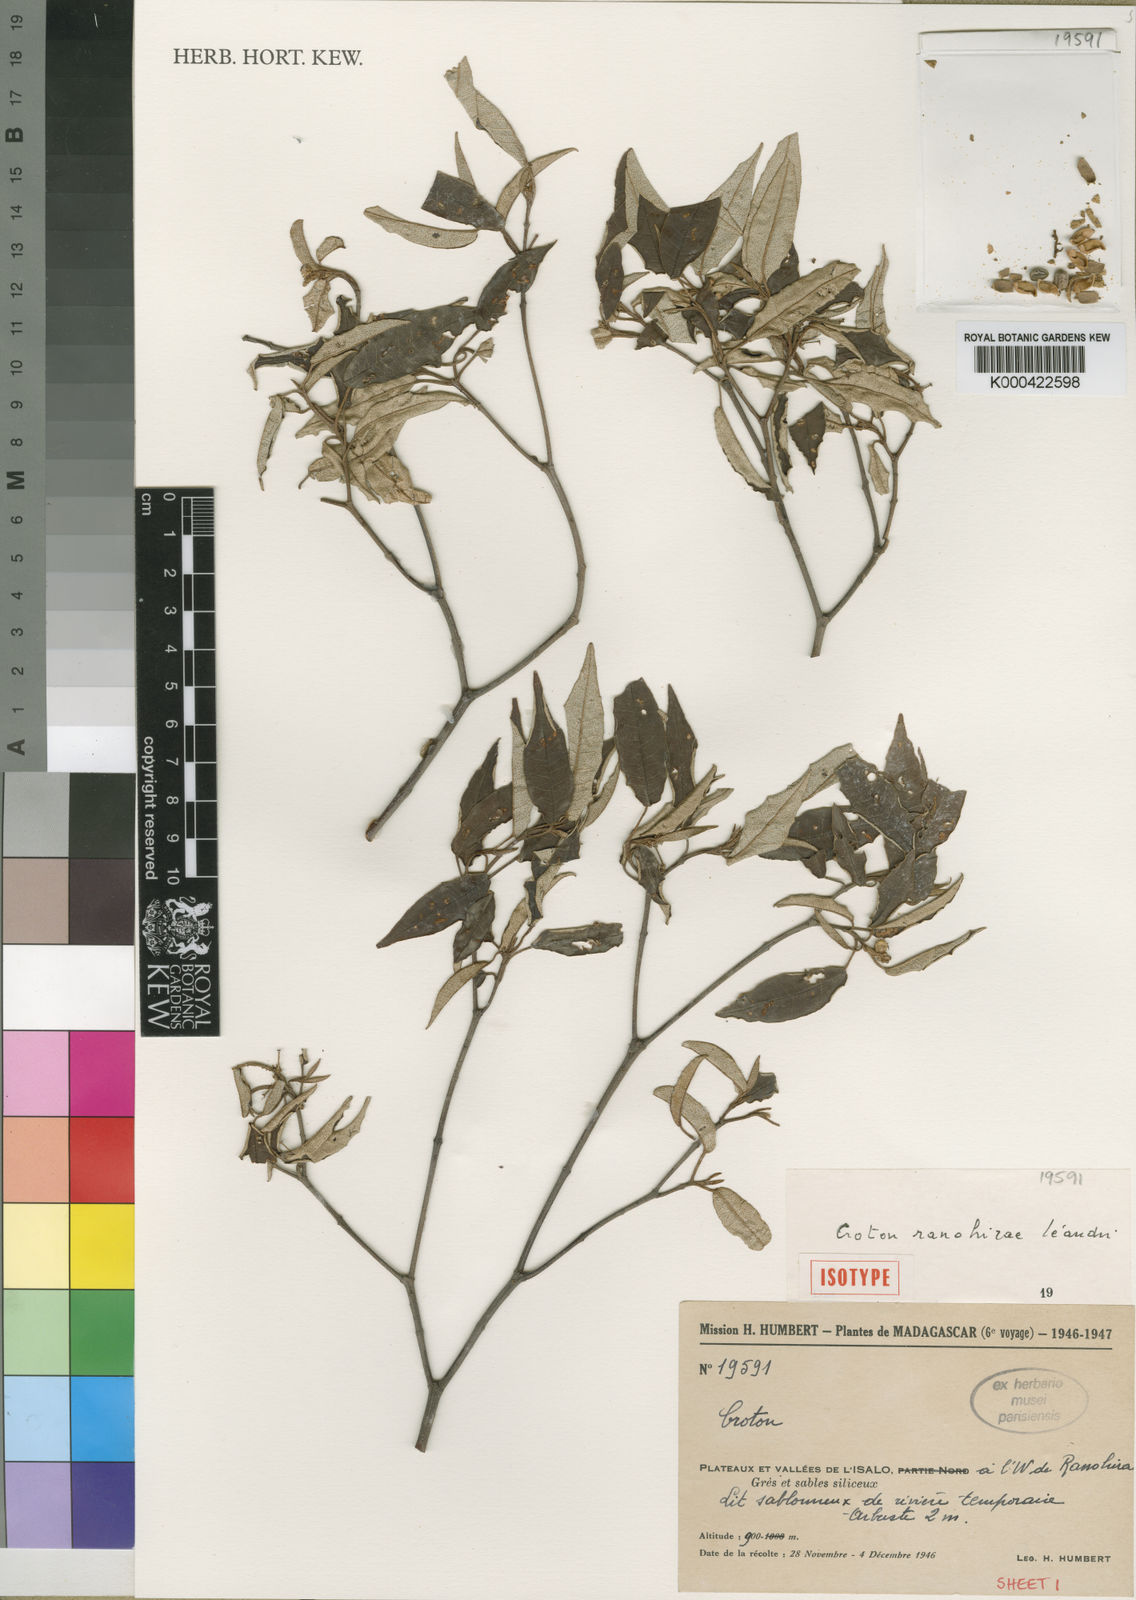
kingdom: Plantae
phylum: Tracheophyta
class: Magnoliopsida
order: Malpighiales
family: Euphorbiaceae
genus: Croton
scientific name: Croton catatii
